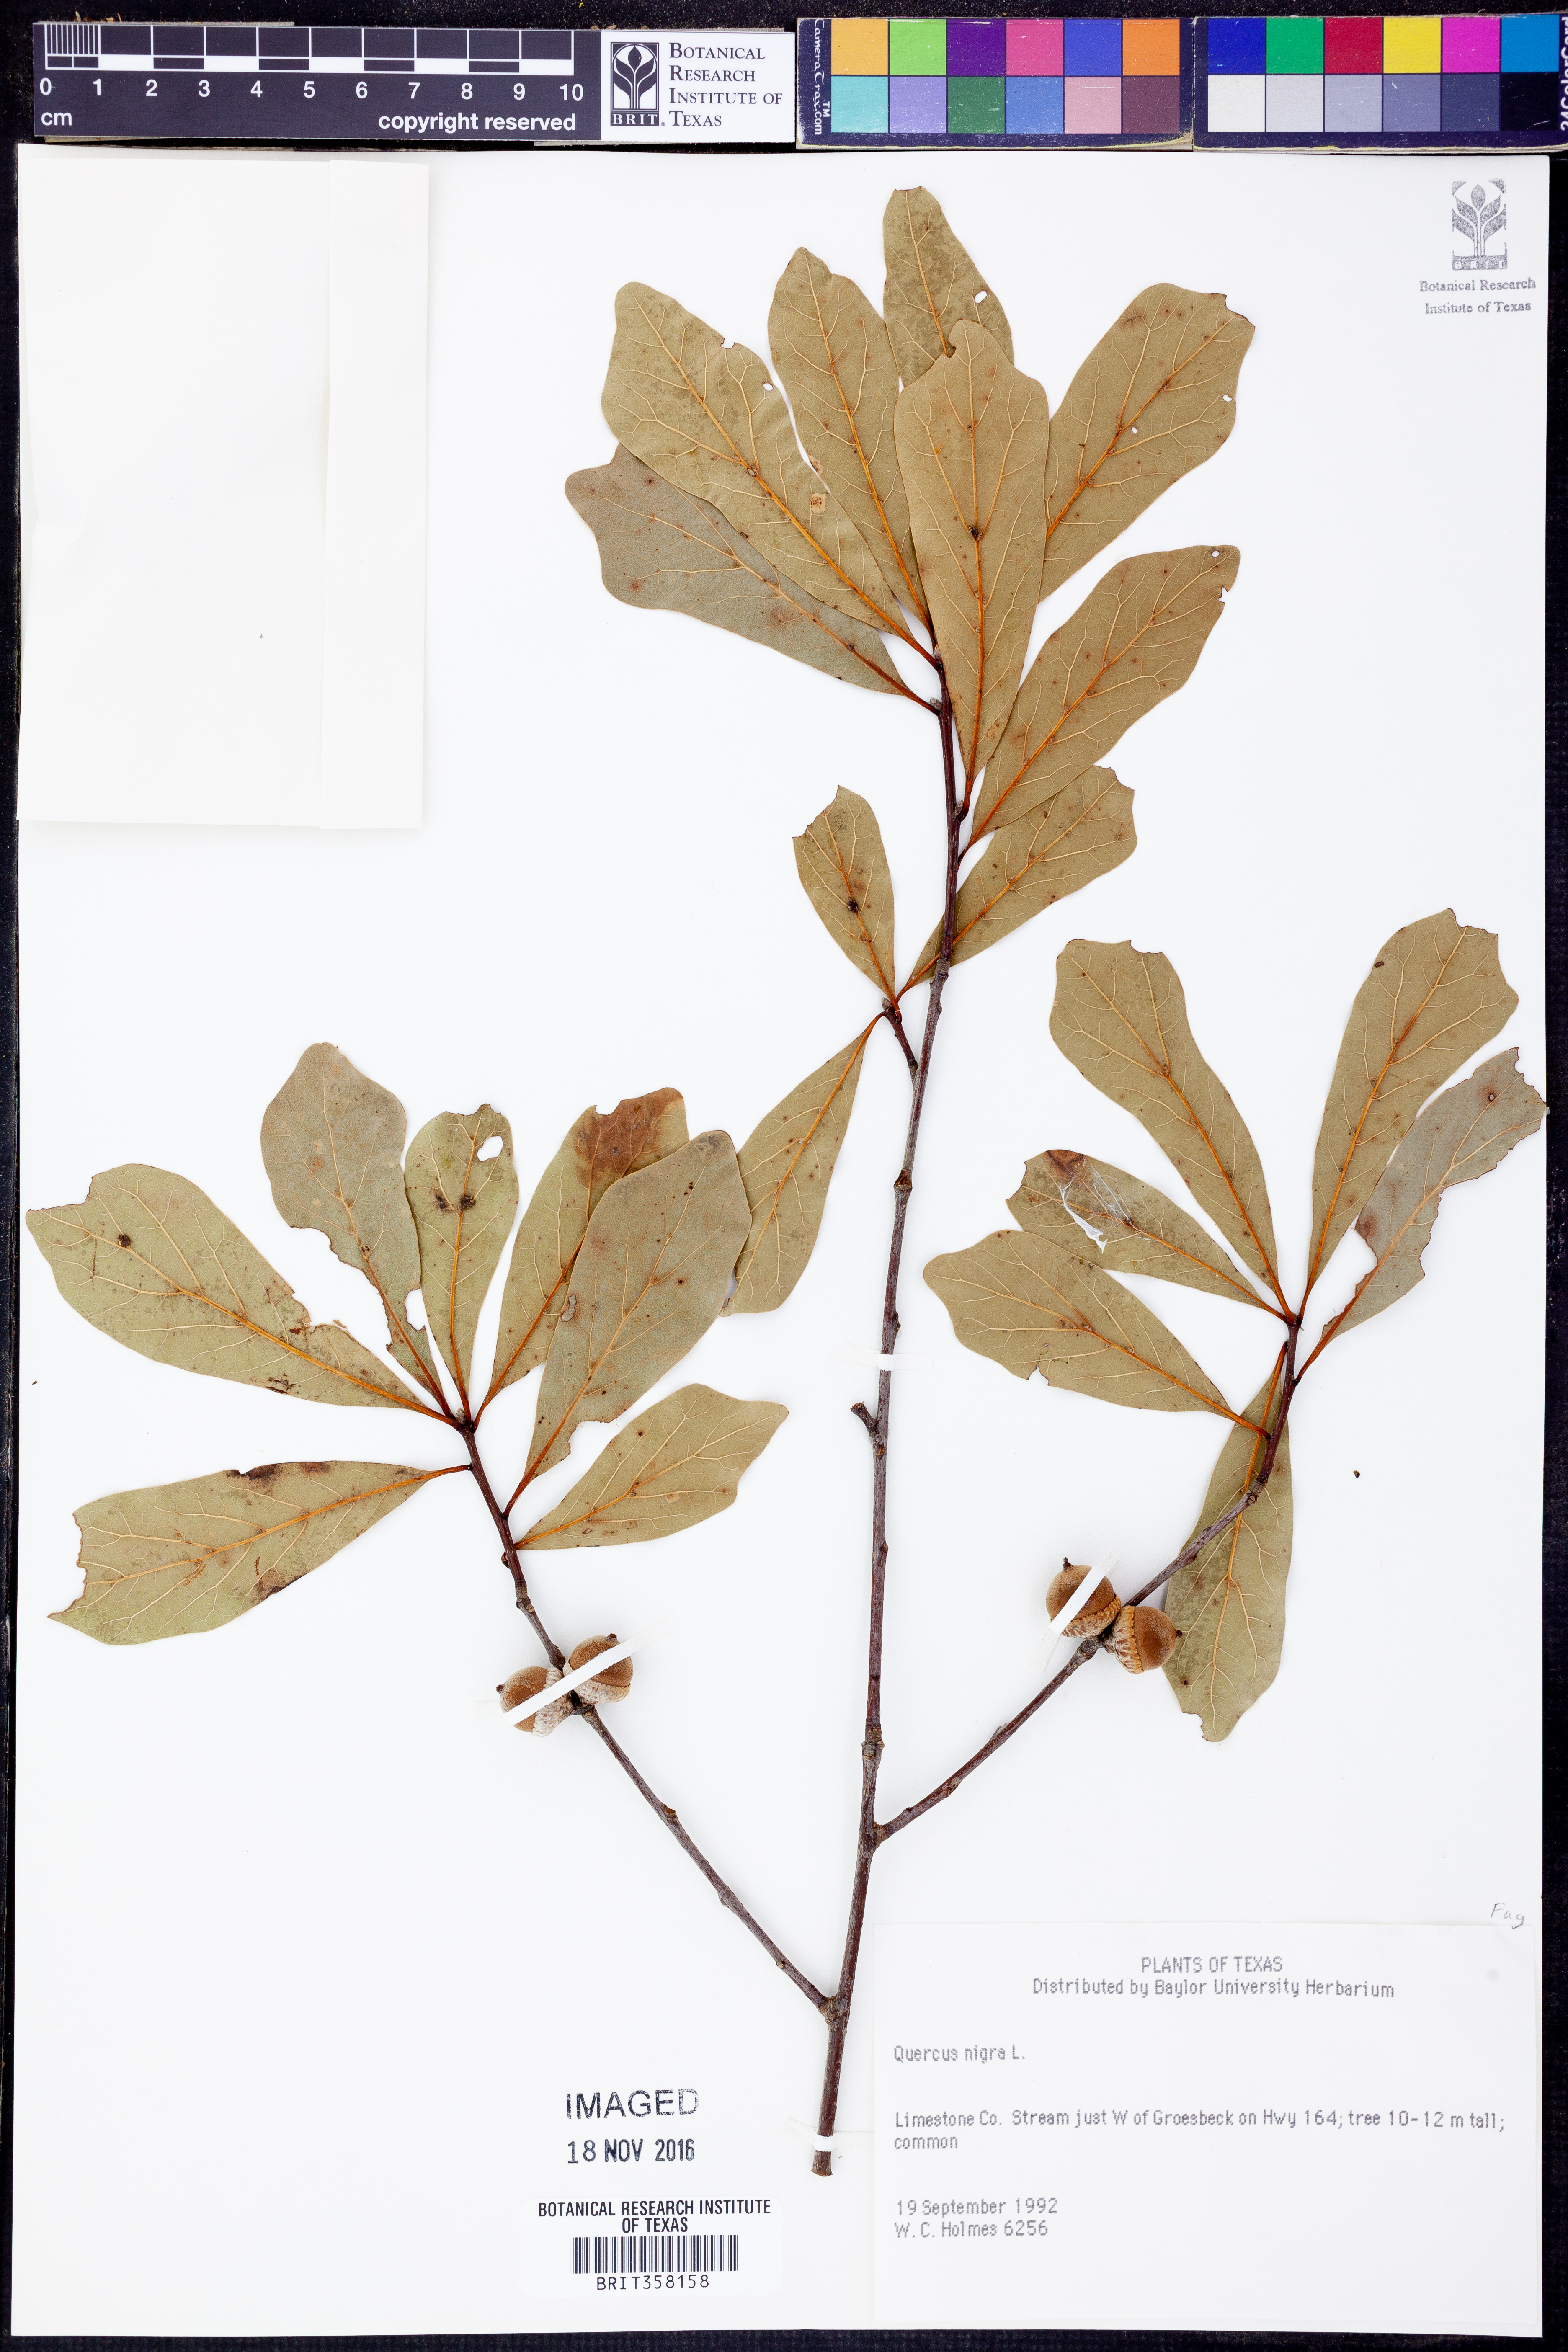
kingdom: Plantae
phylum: Tracheophyta
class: Magnoliopsida
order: Fagales
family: Fagaceae
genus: Quercus
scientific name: Quercus nigra
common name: Water oak
